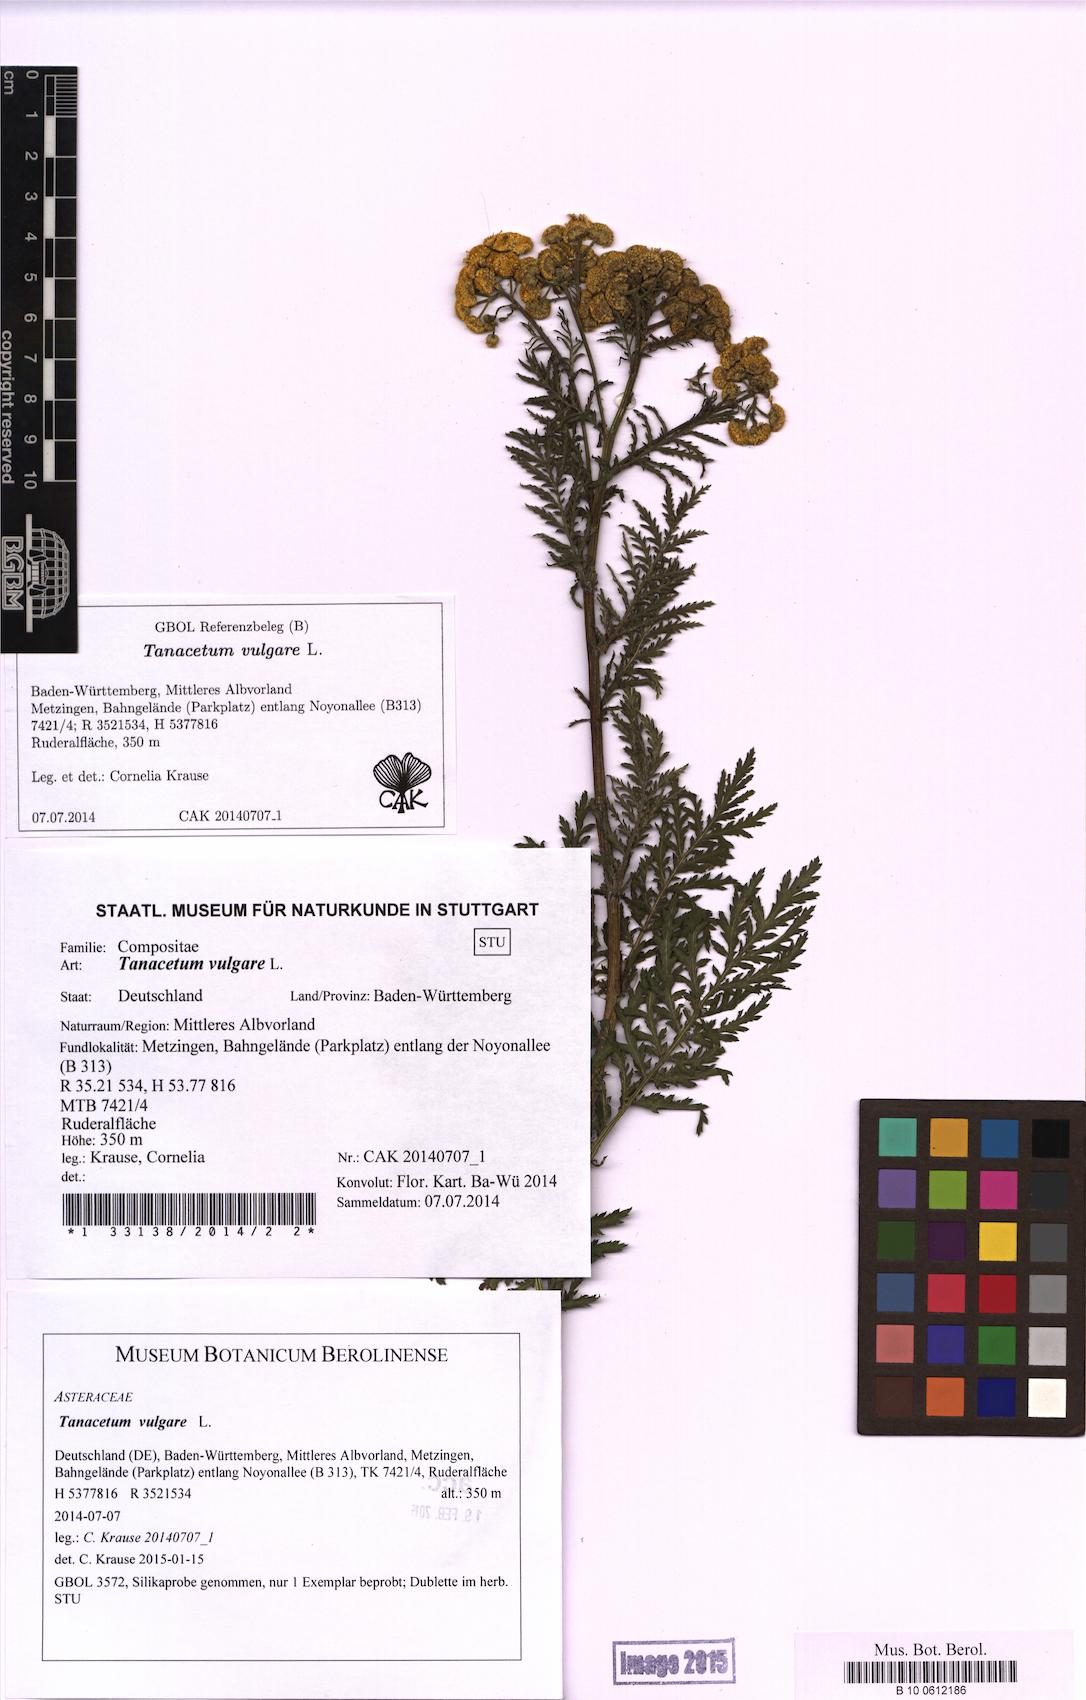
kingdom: Plantae
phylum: Tracheophyta
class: Magnoliopsida
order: Asterales
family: Asteraceae
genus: Tanacetum
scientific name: Tanacetum vulgare
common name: Common tansy
